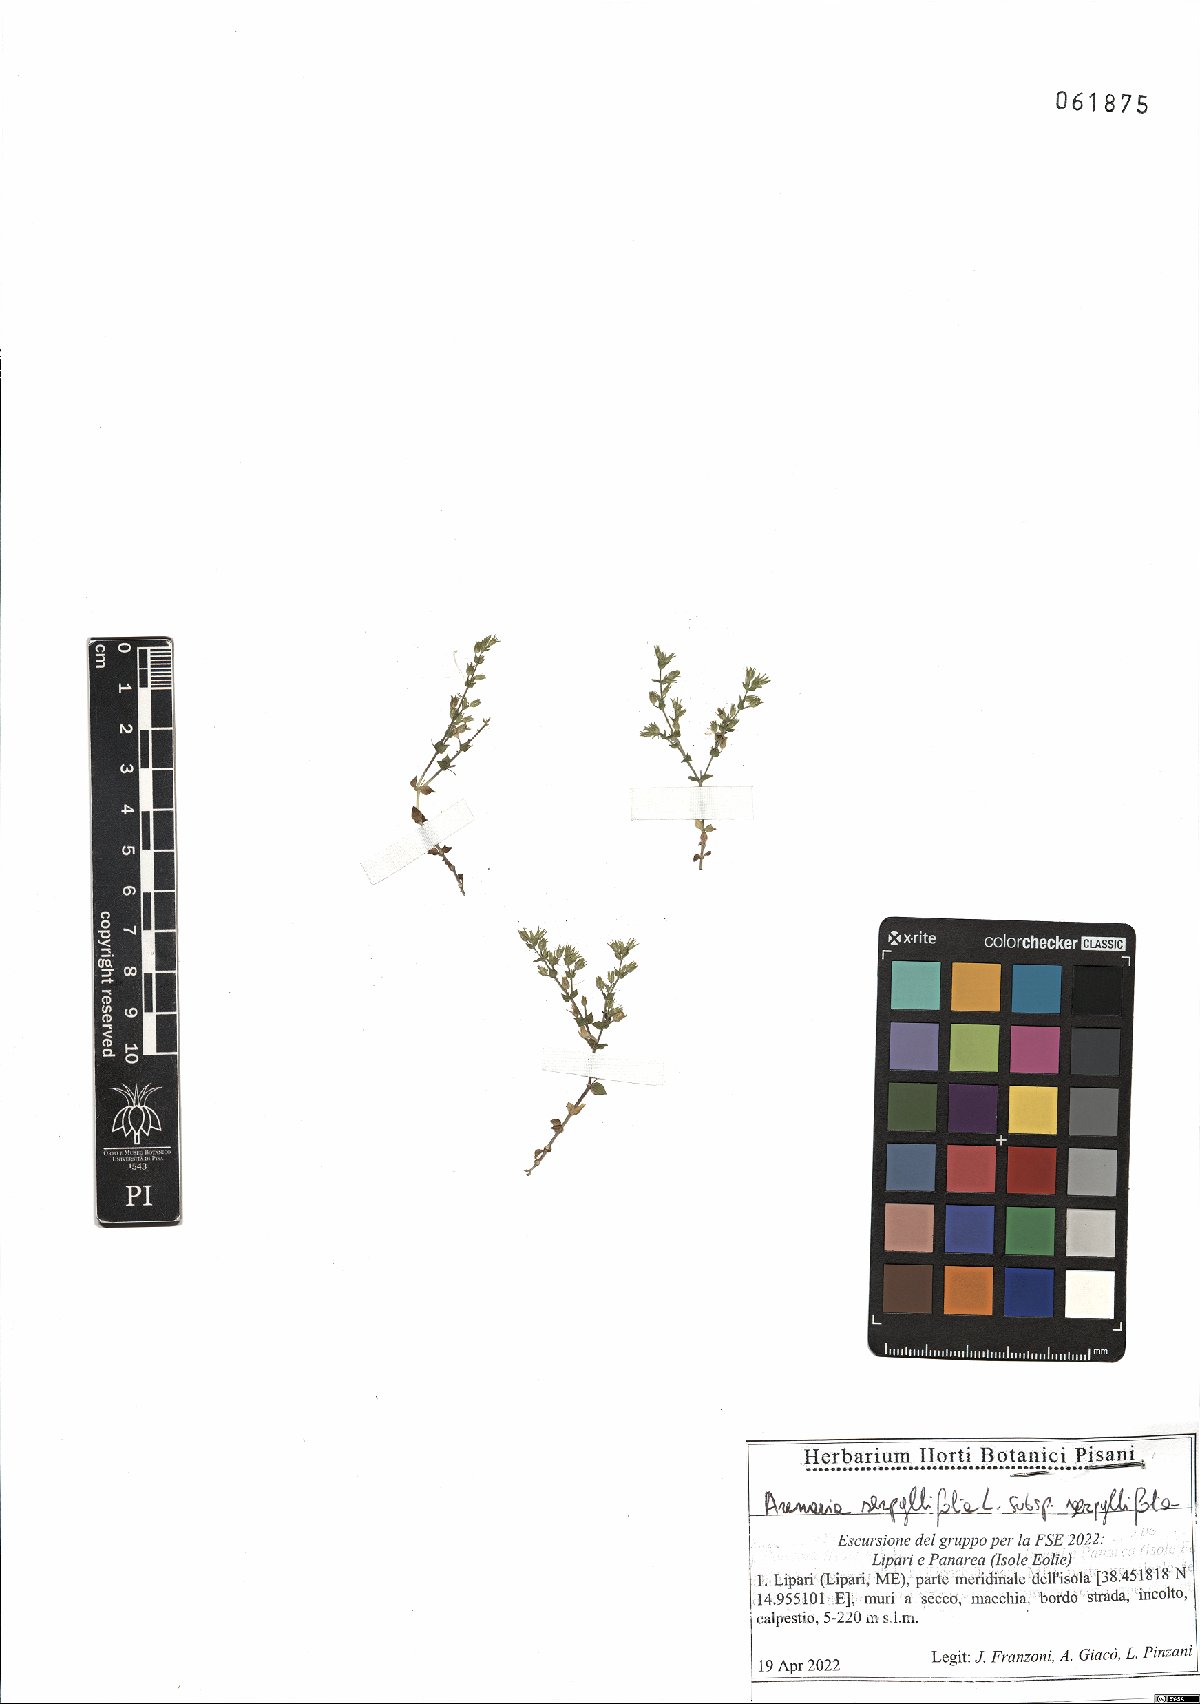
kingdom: Plantae
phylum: Tracheophyta
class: Magnoliopsida
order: Caryophyllales
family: Caryophyllaceae
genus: Arenaria
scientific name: Arenaria serpyllifolia
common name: Thyme-leaved sandwort
